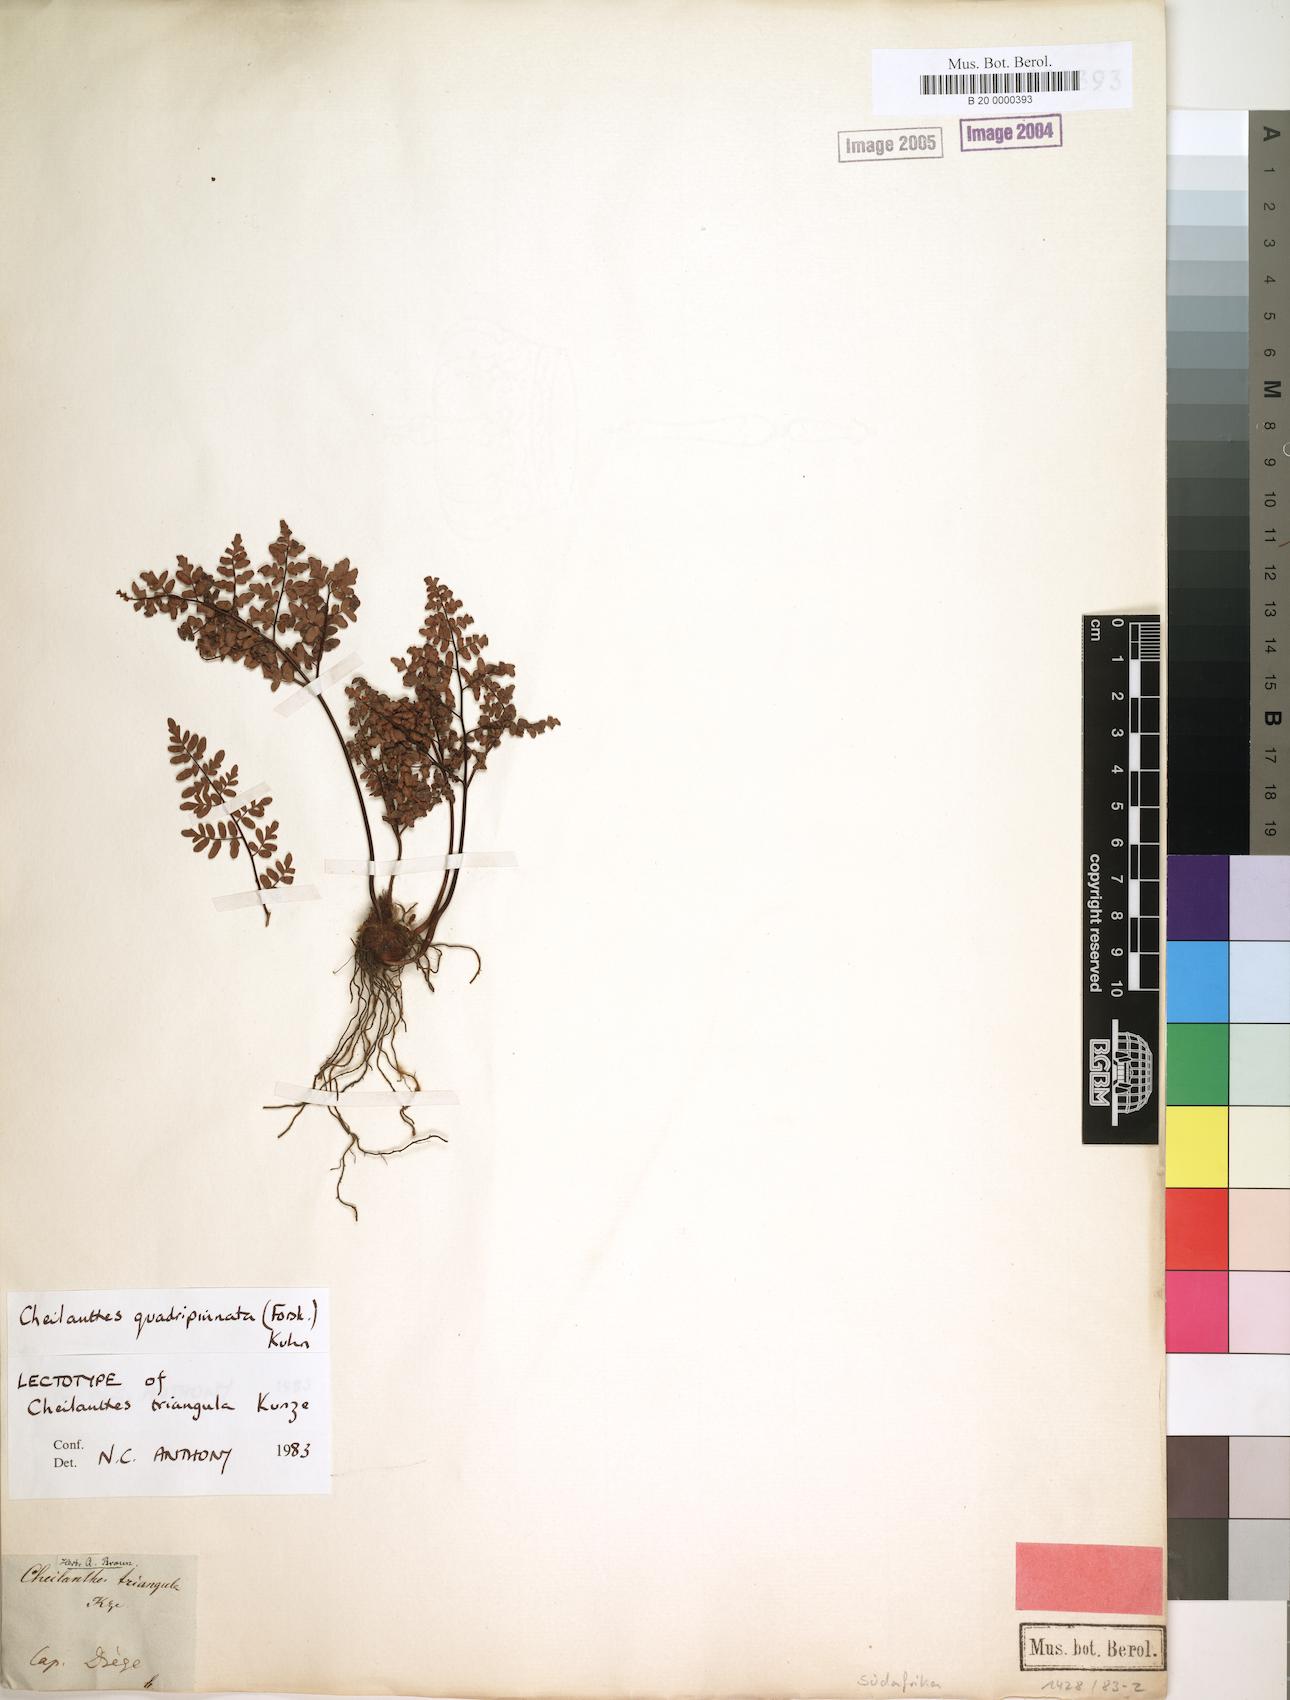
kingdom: Plantae
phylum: Tracheophyta
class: Polypodiopsida
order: Polypodiales
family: Pteridaceae
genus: Cheilanthes
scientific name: Cheilanthes quadripinnata
